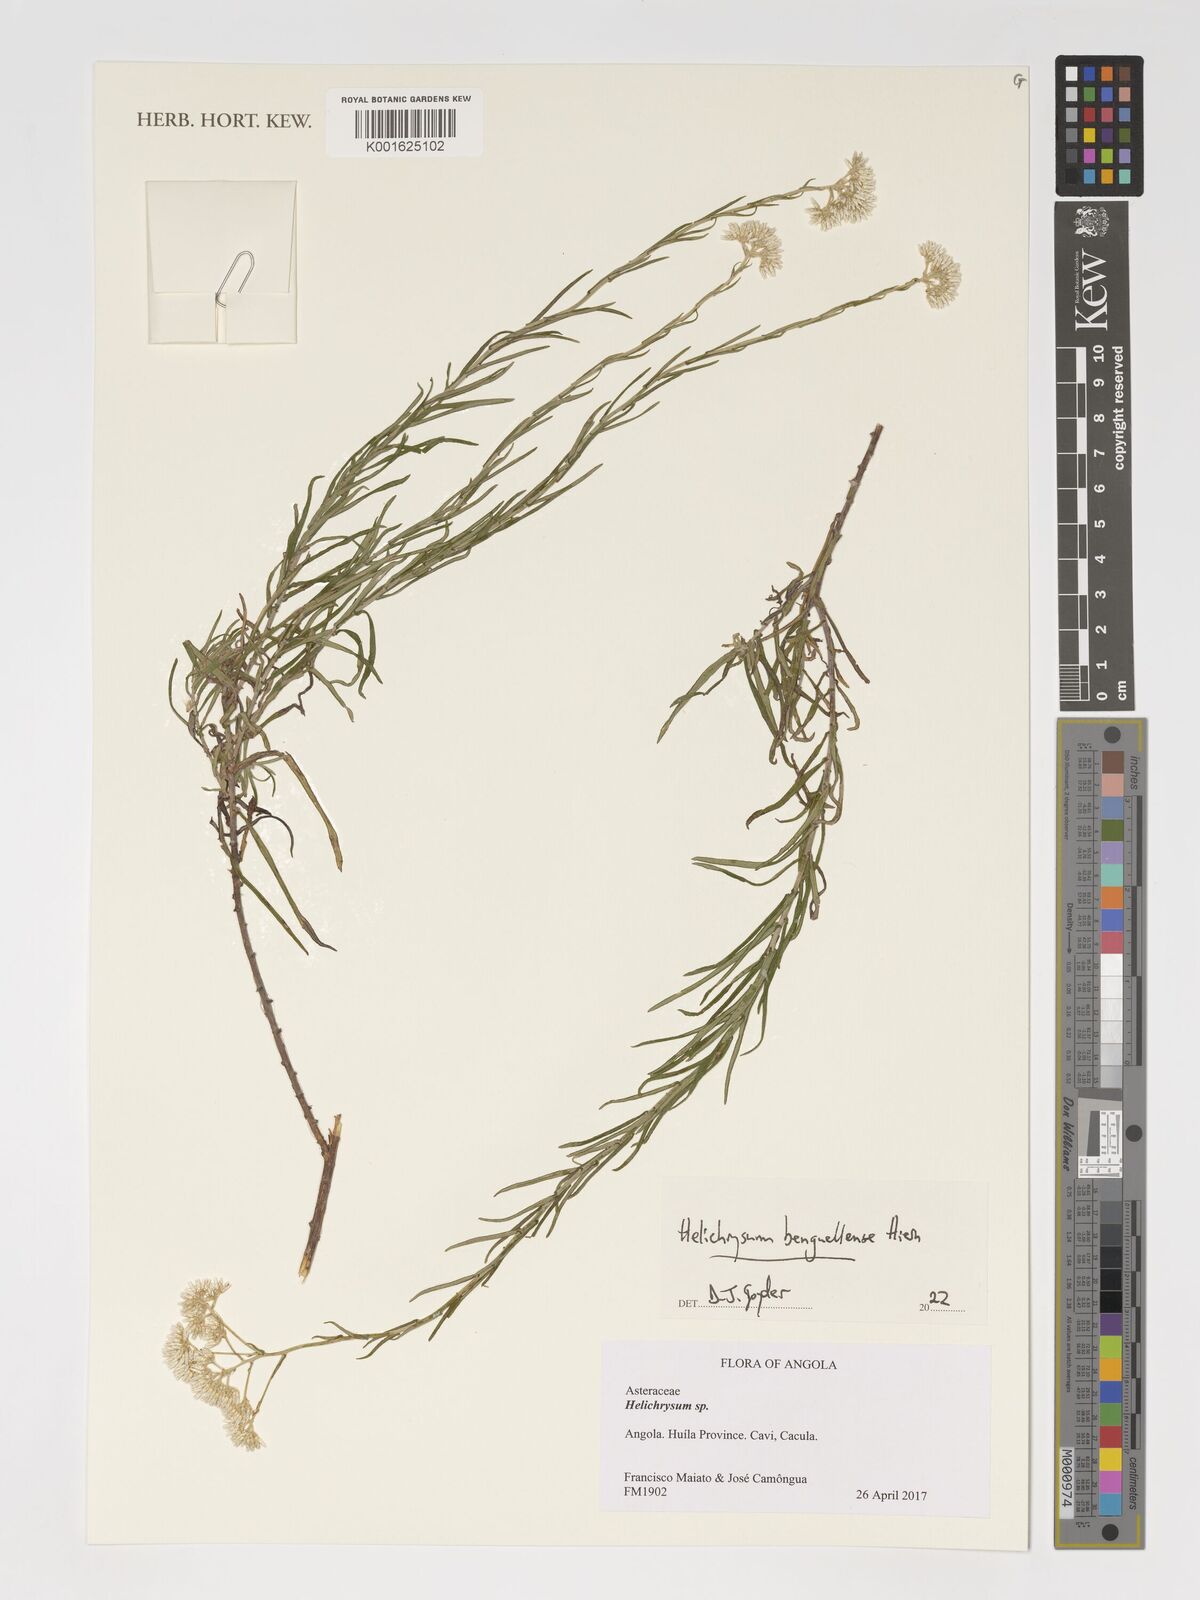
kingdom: Plantae
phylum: Tracheophyta
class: Magnoliopsida
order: Asterales
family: Asteraceae
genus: Helichrysum
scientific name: Helichrysum benguellense
